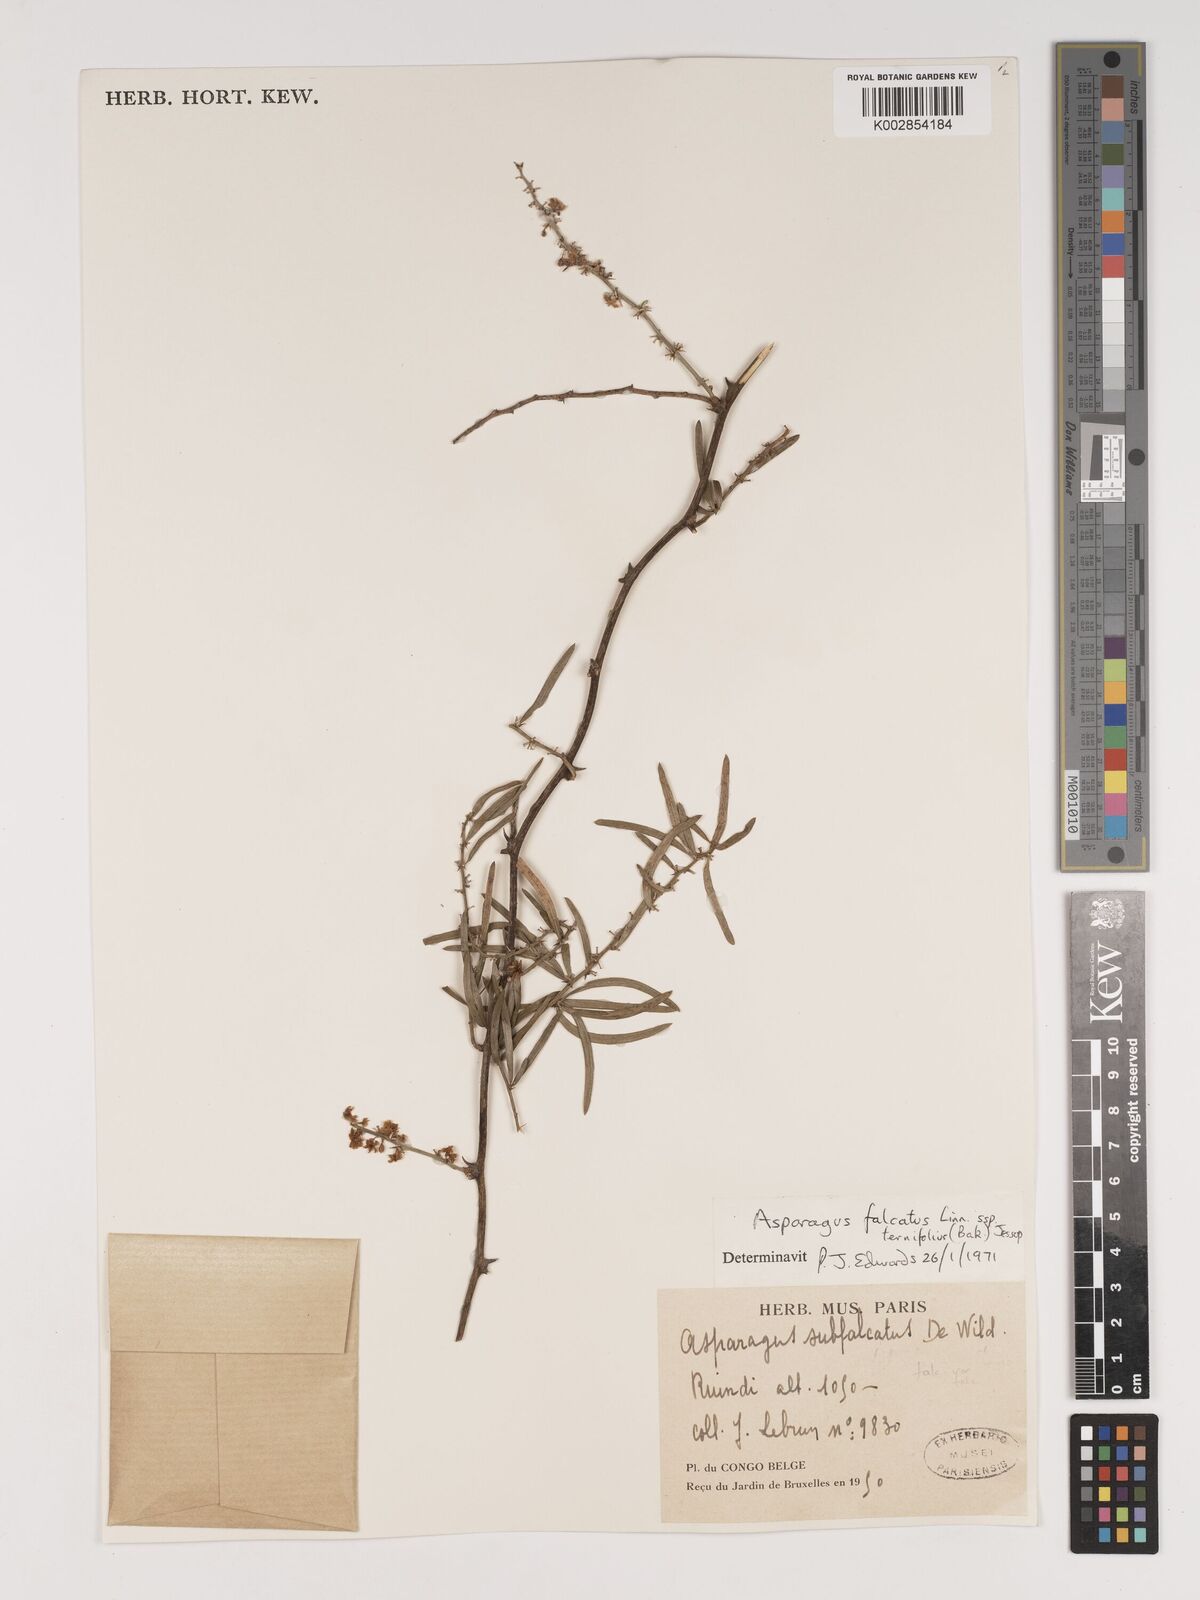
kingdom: Plantae
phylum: Tracheophyta
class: Liliopsida
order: Asparagales
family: Asparagaceae
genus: Asparagus
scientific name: Asparagus falcatus
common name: Asparagus
